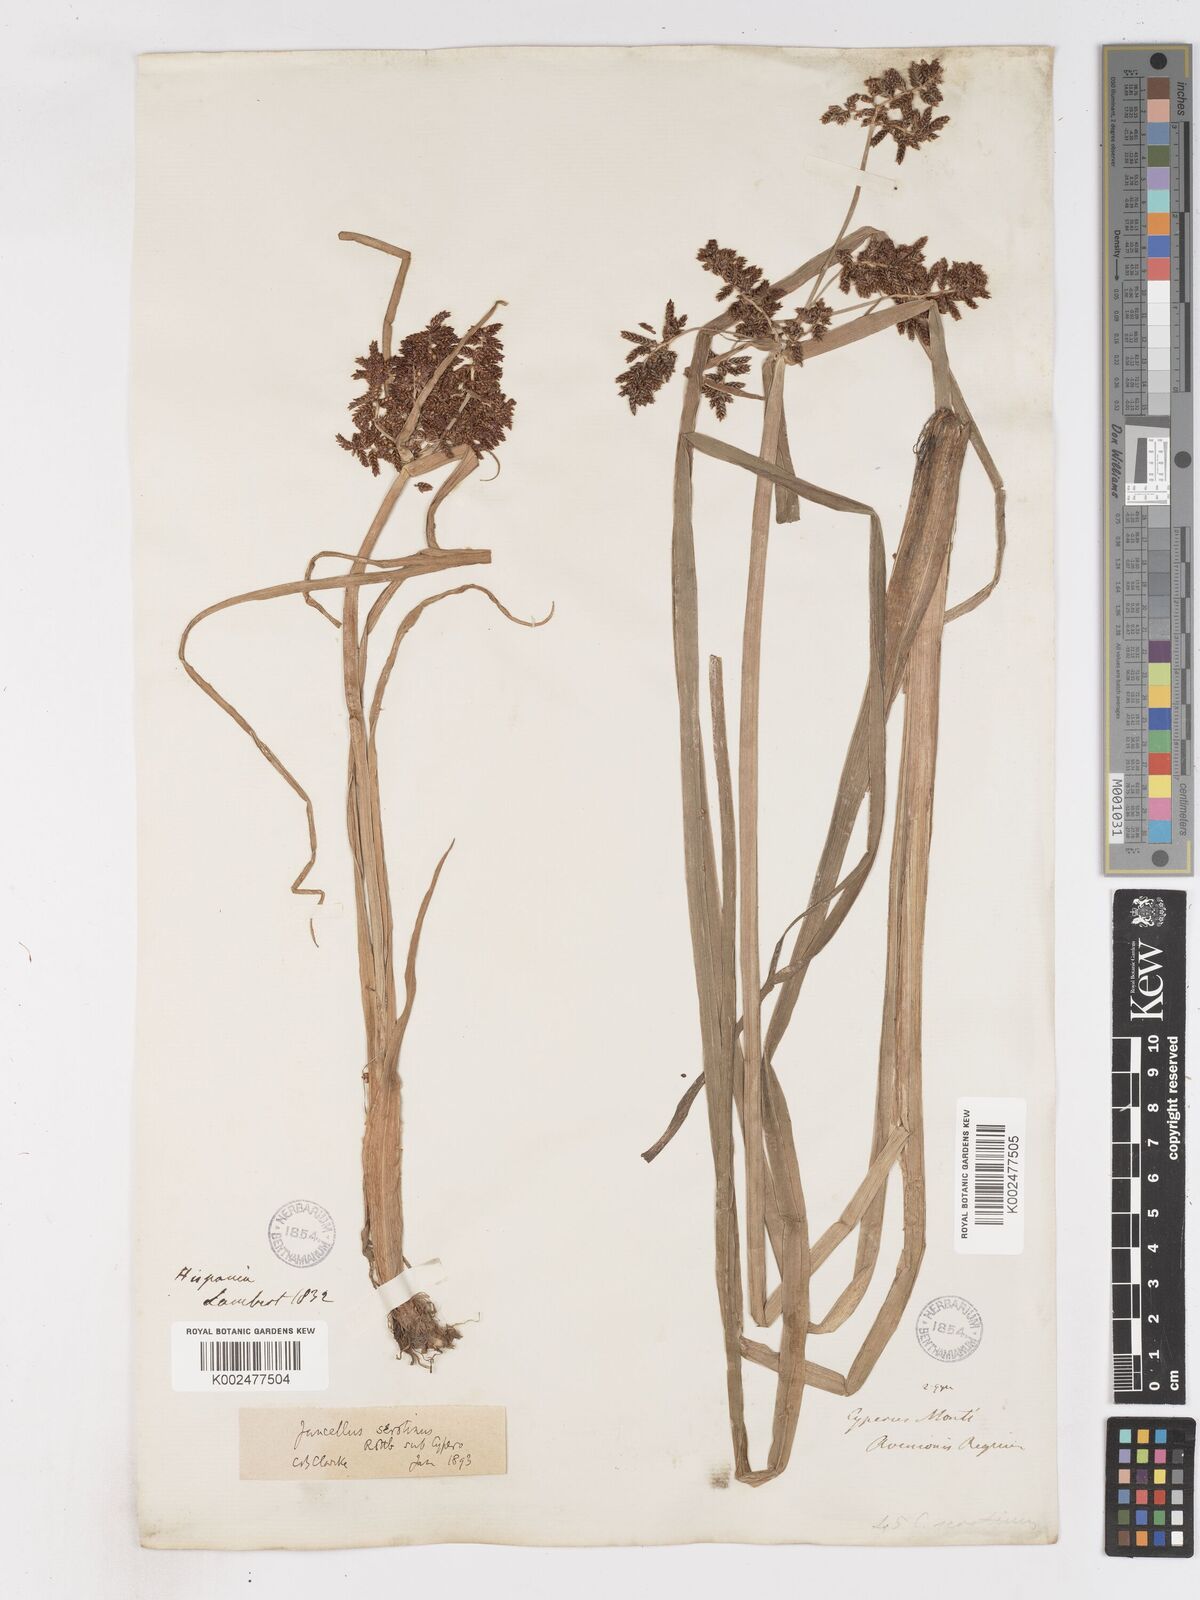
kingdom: Plantae
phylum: Tracheophyta
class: Liliopsida
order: Poales
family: Cyperaceae
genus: Cyperus
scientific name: Cyperus serotinus
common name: Tidalmarsh flatsedge
